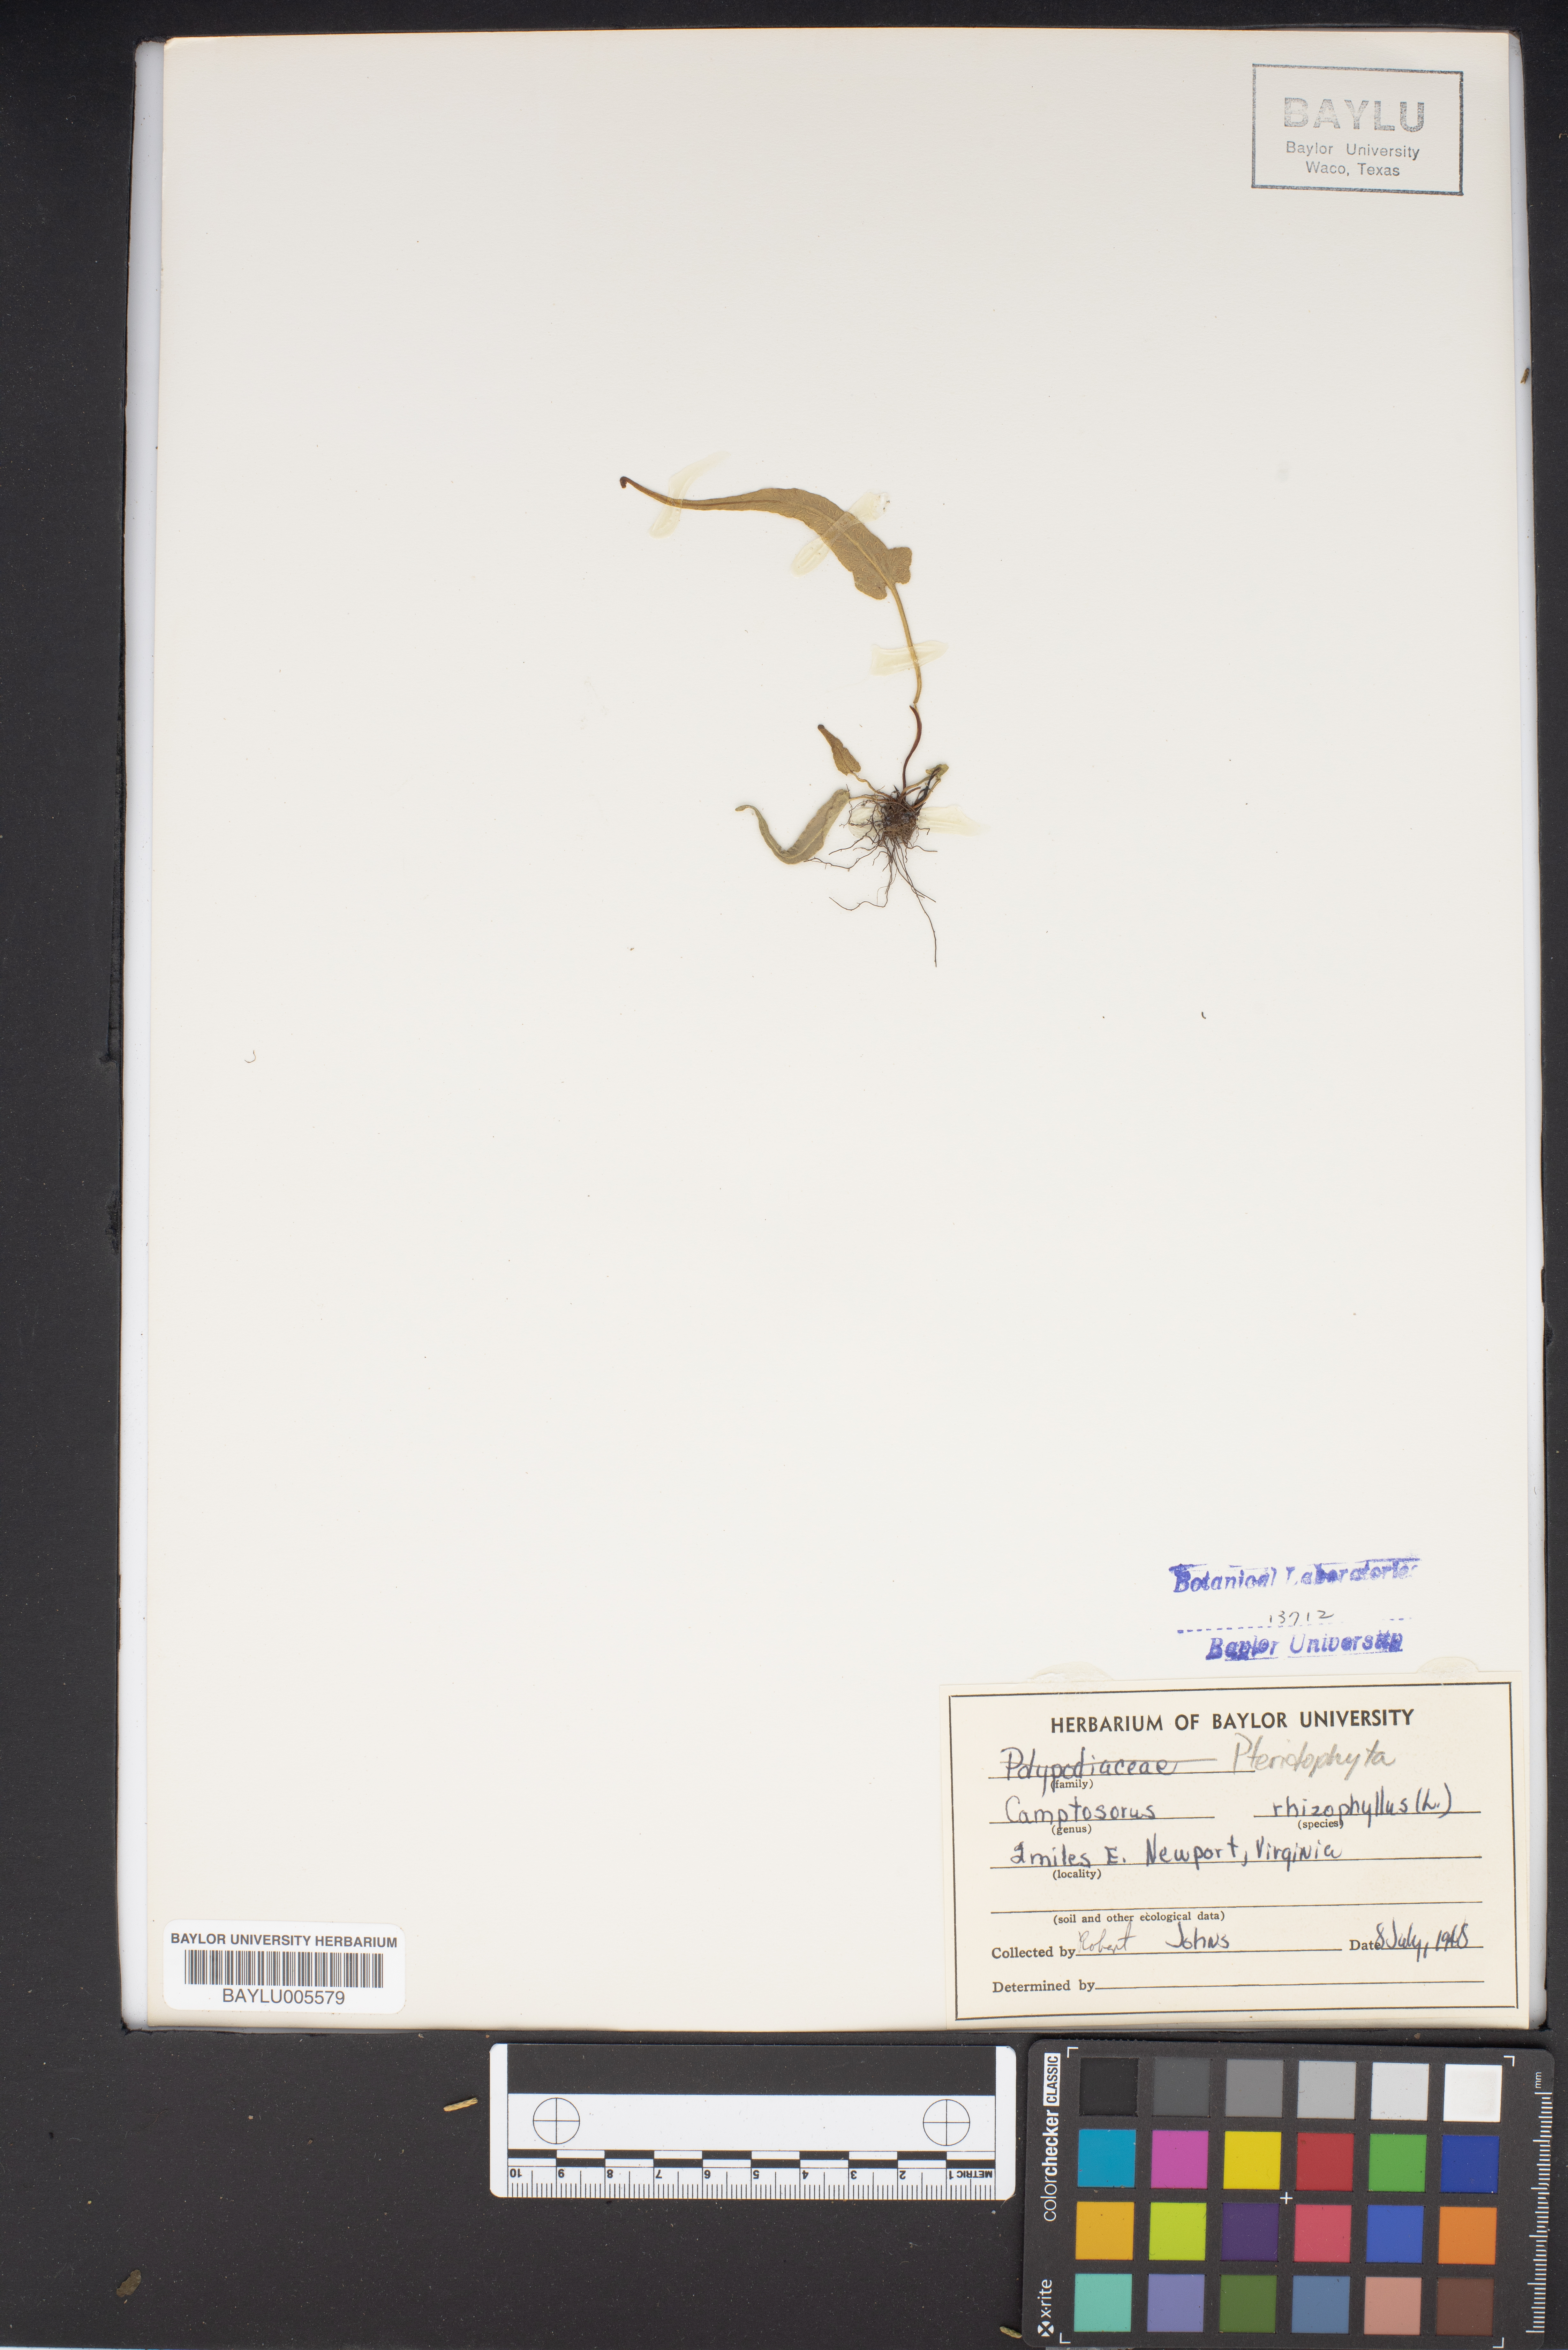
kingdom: Plantae
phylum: Tracheophyta
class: Polypodiopsida
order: Polypodiales
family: Aspleniaceae
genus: Asplenium
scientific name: Asplenium rhizophyllum
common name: Walking fern
